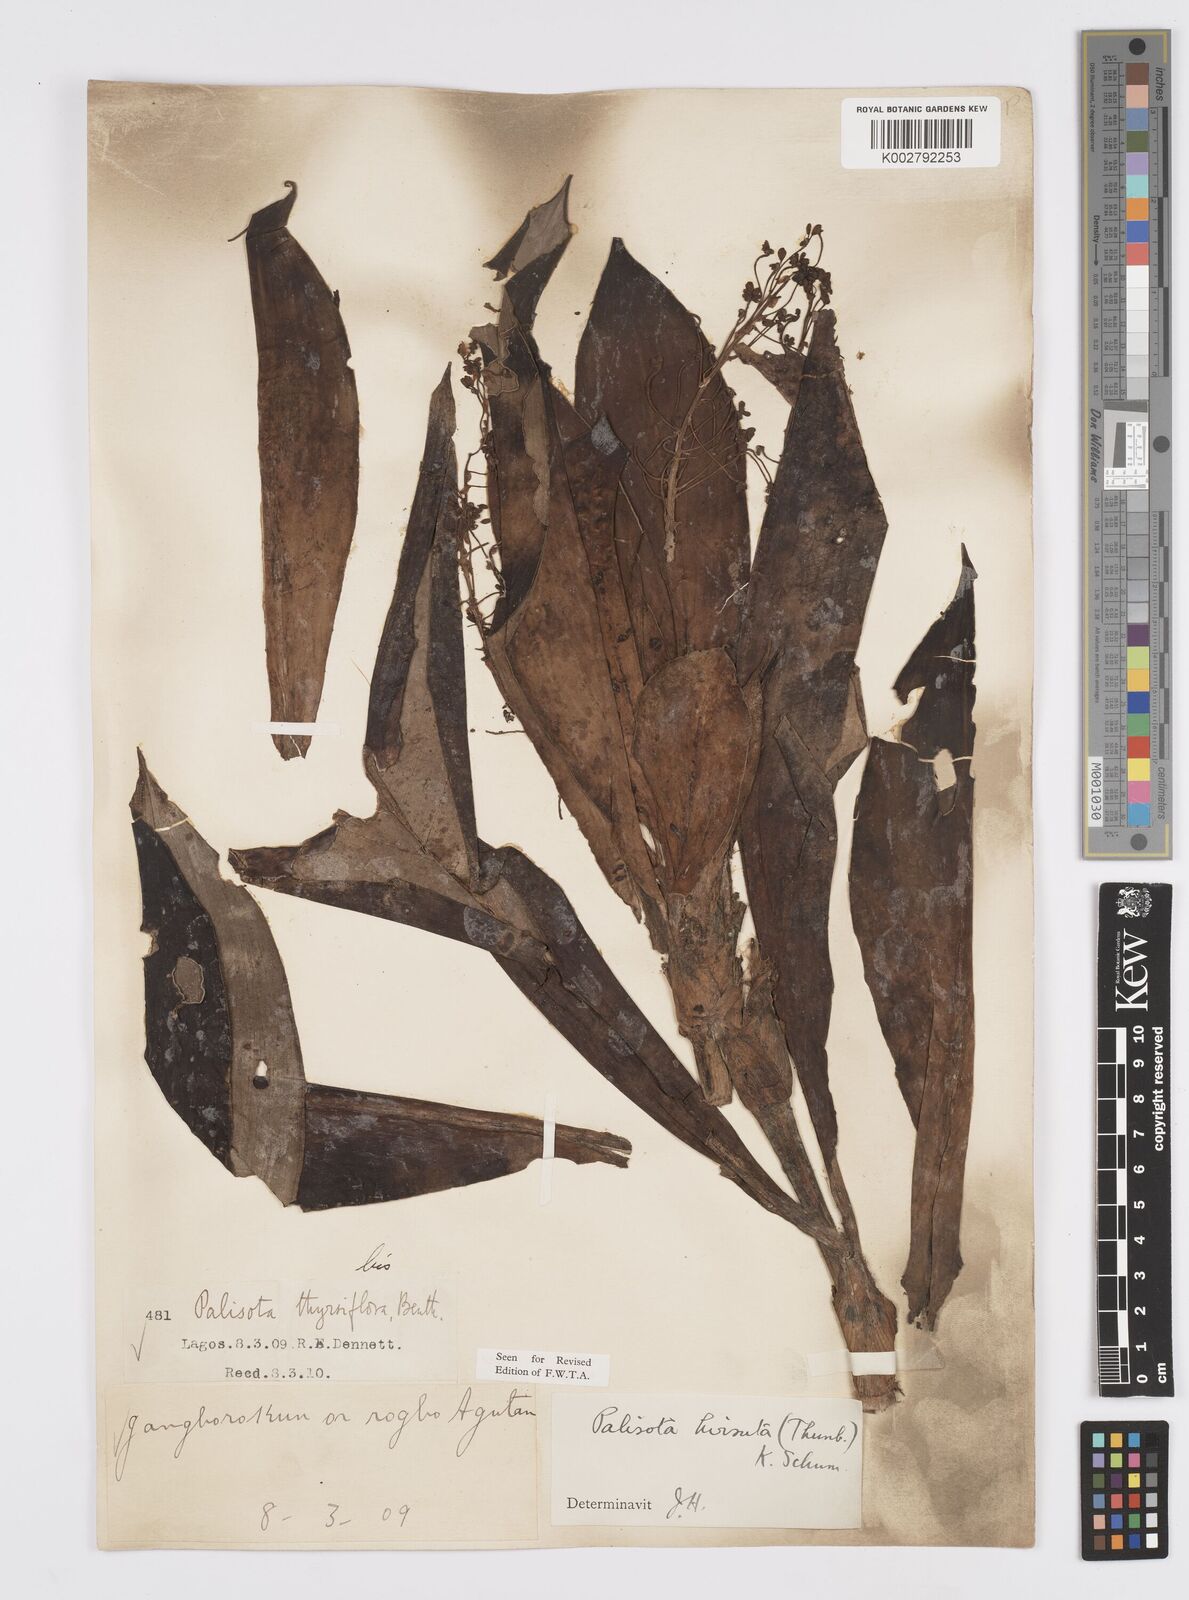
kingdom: Plantae
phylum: Tracheophyta
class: Liliopsida
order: Commelinales
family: Commelinaceae
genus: Palisota
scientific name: Palisota hirsuta
